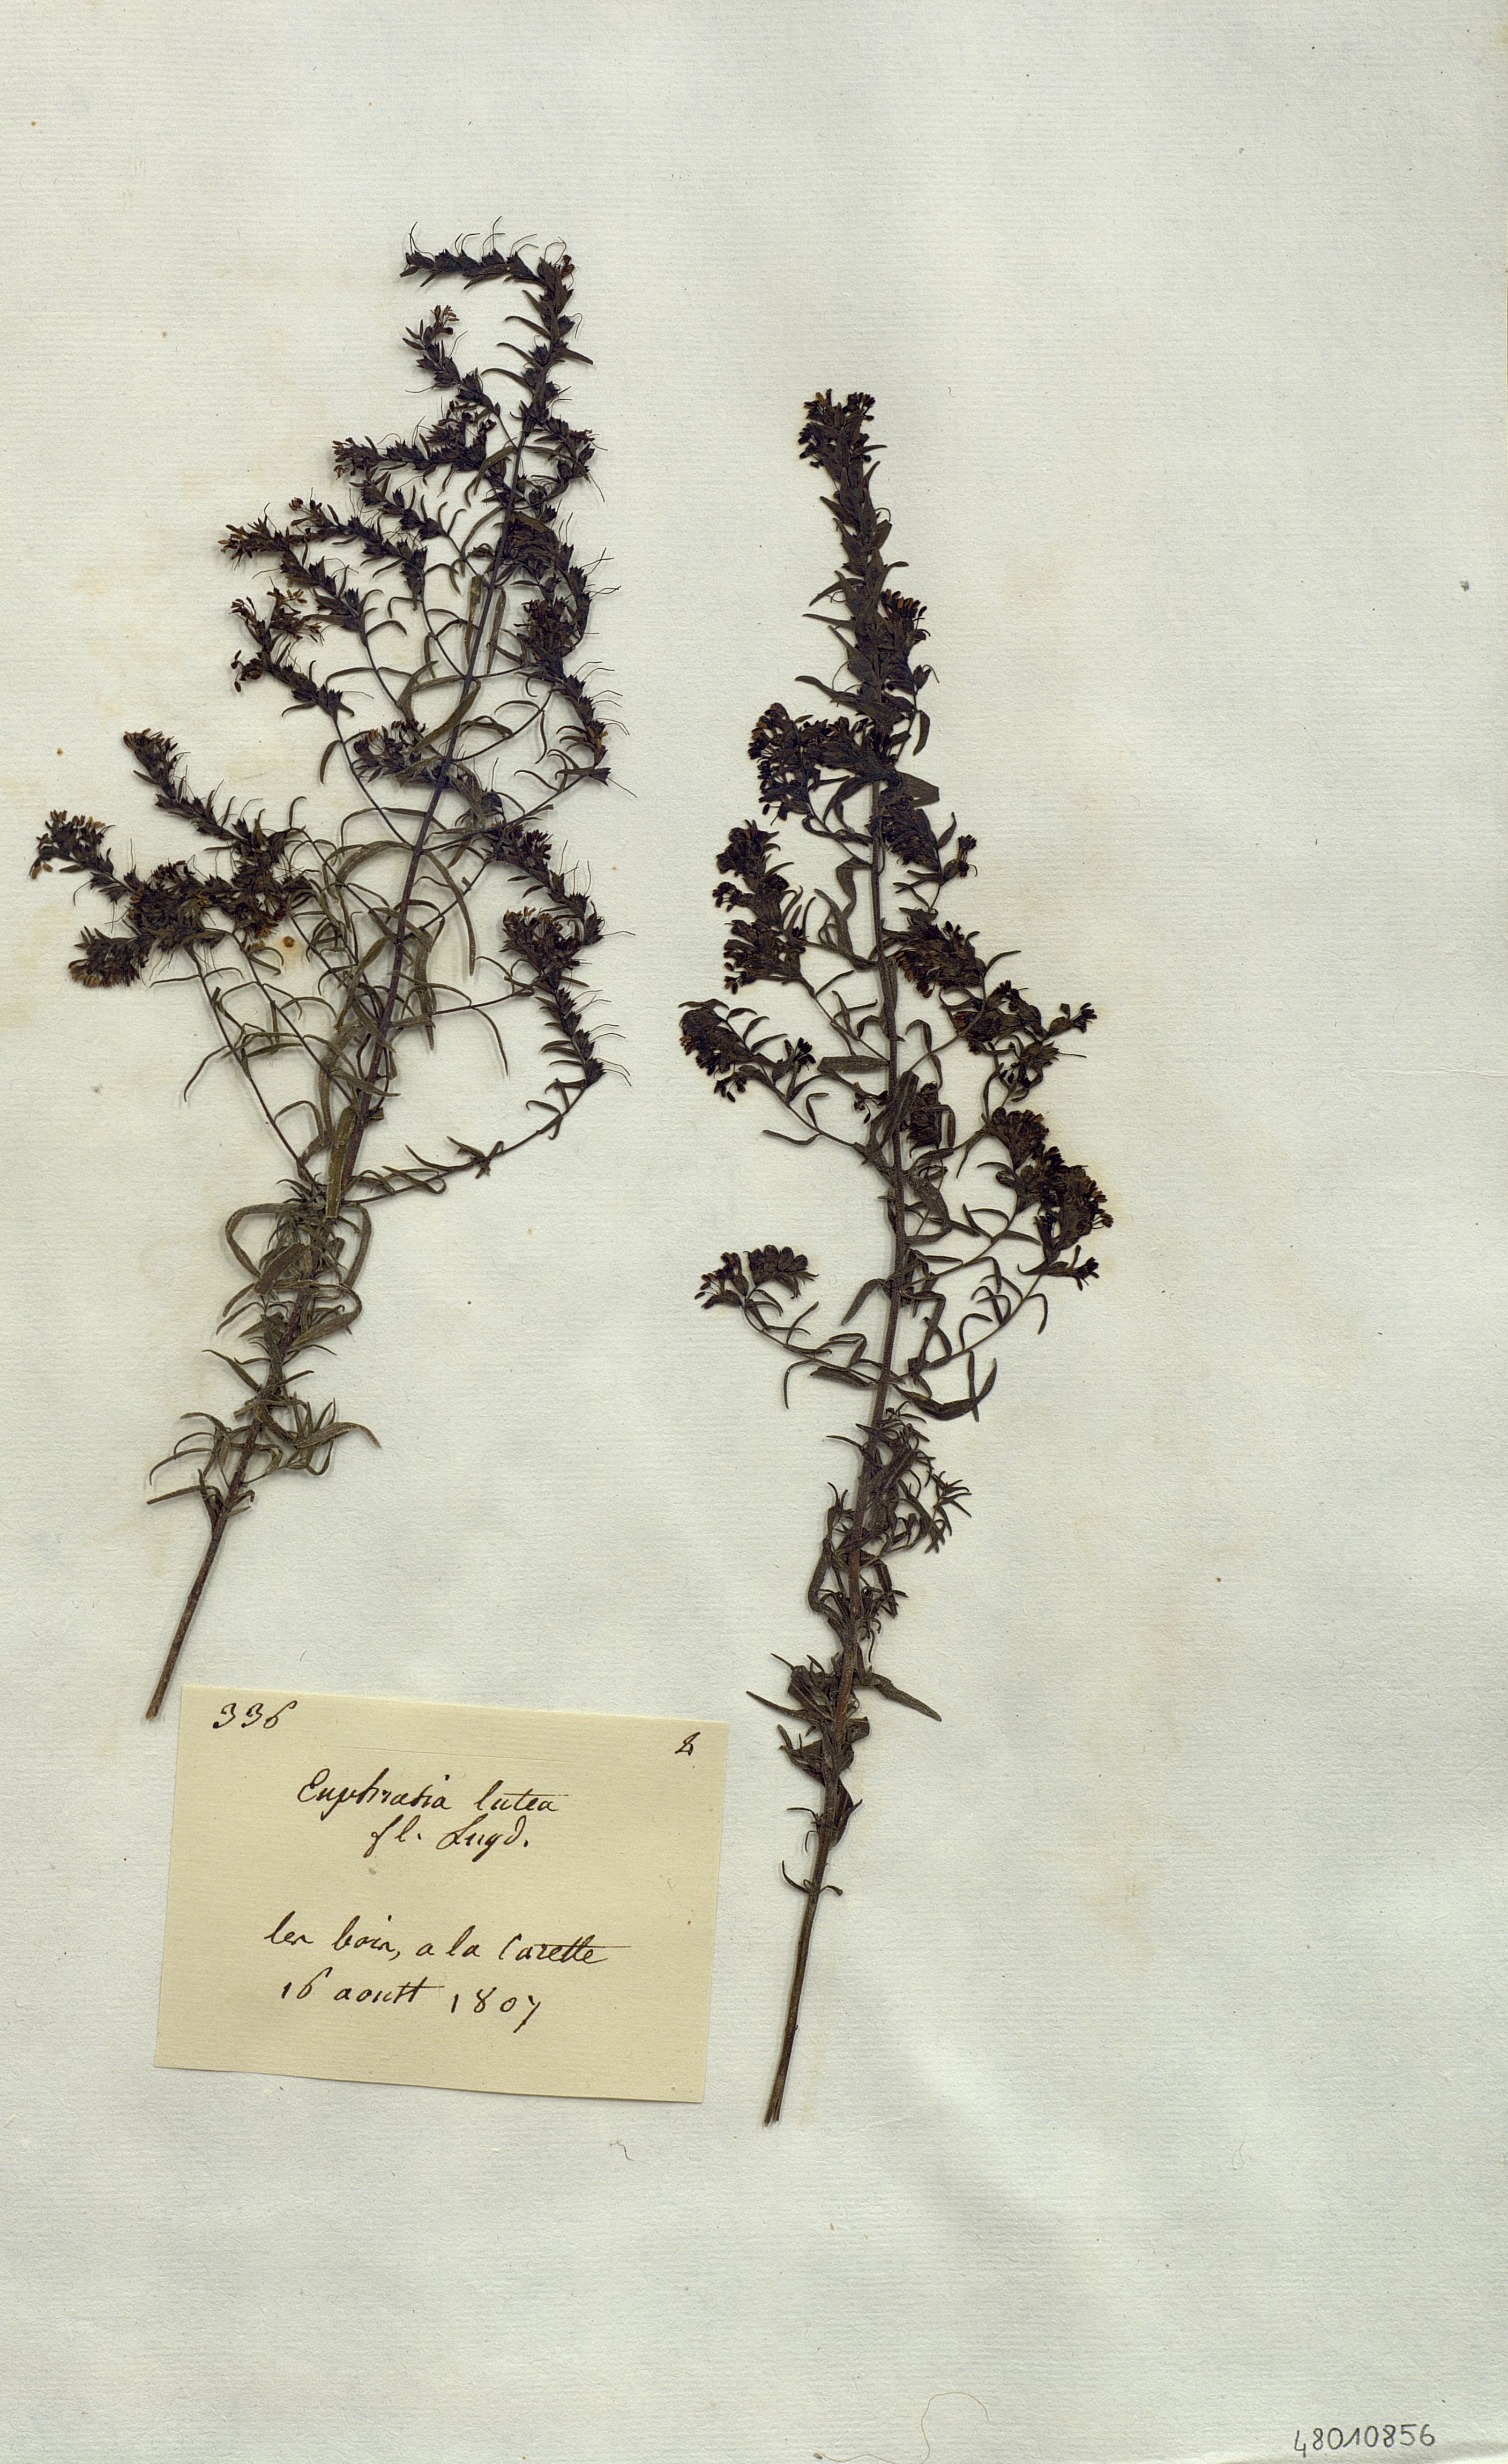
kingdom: Plantae
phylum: Tracheophyta
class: Magnoliopsida
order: Lamiales
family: Orobanchaceae
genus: Odontites
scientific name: Odontites
